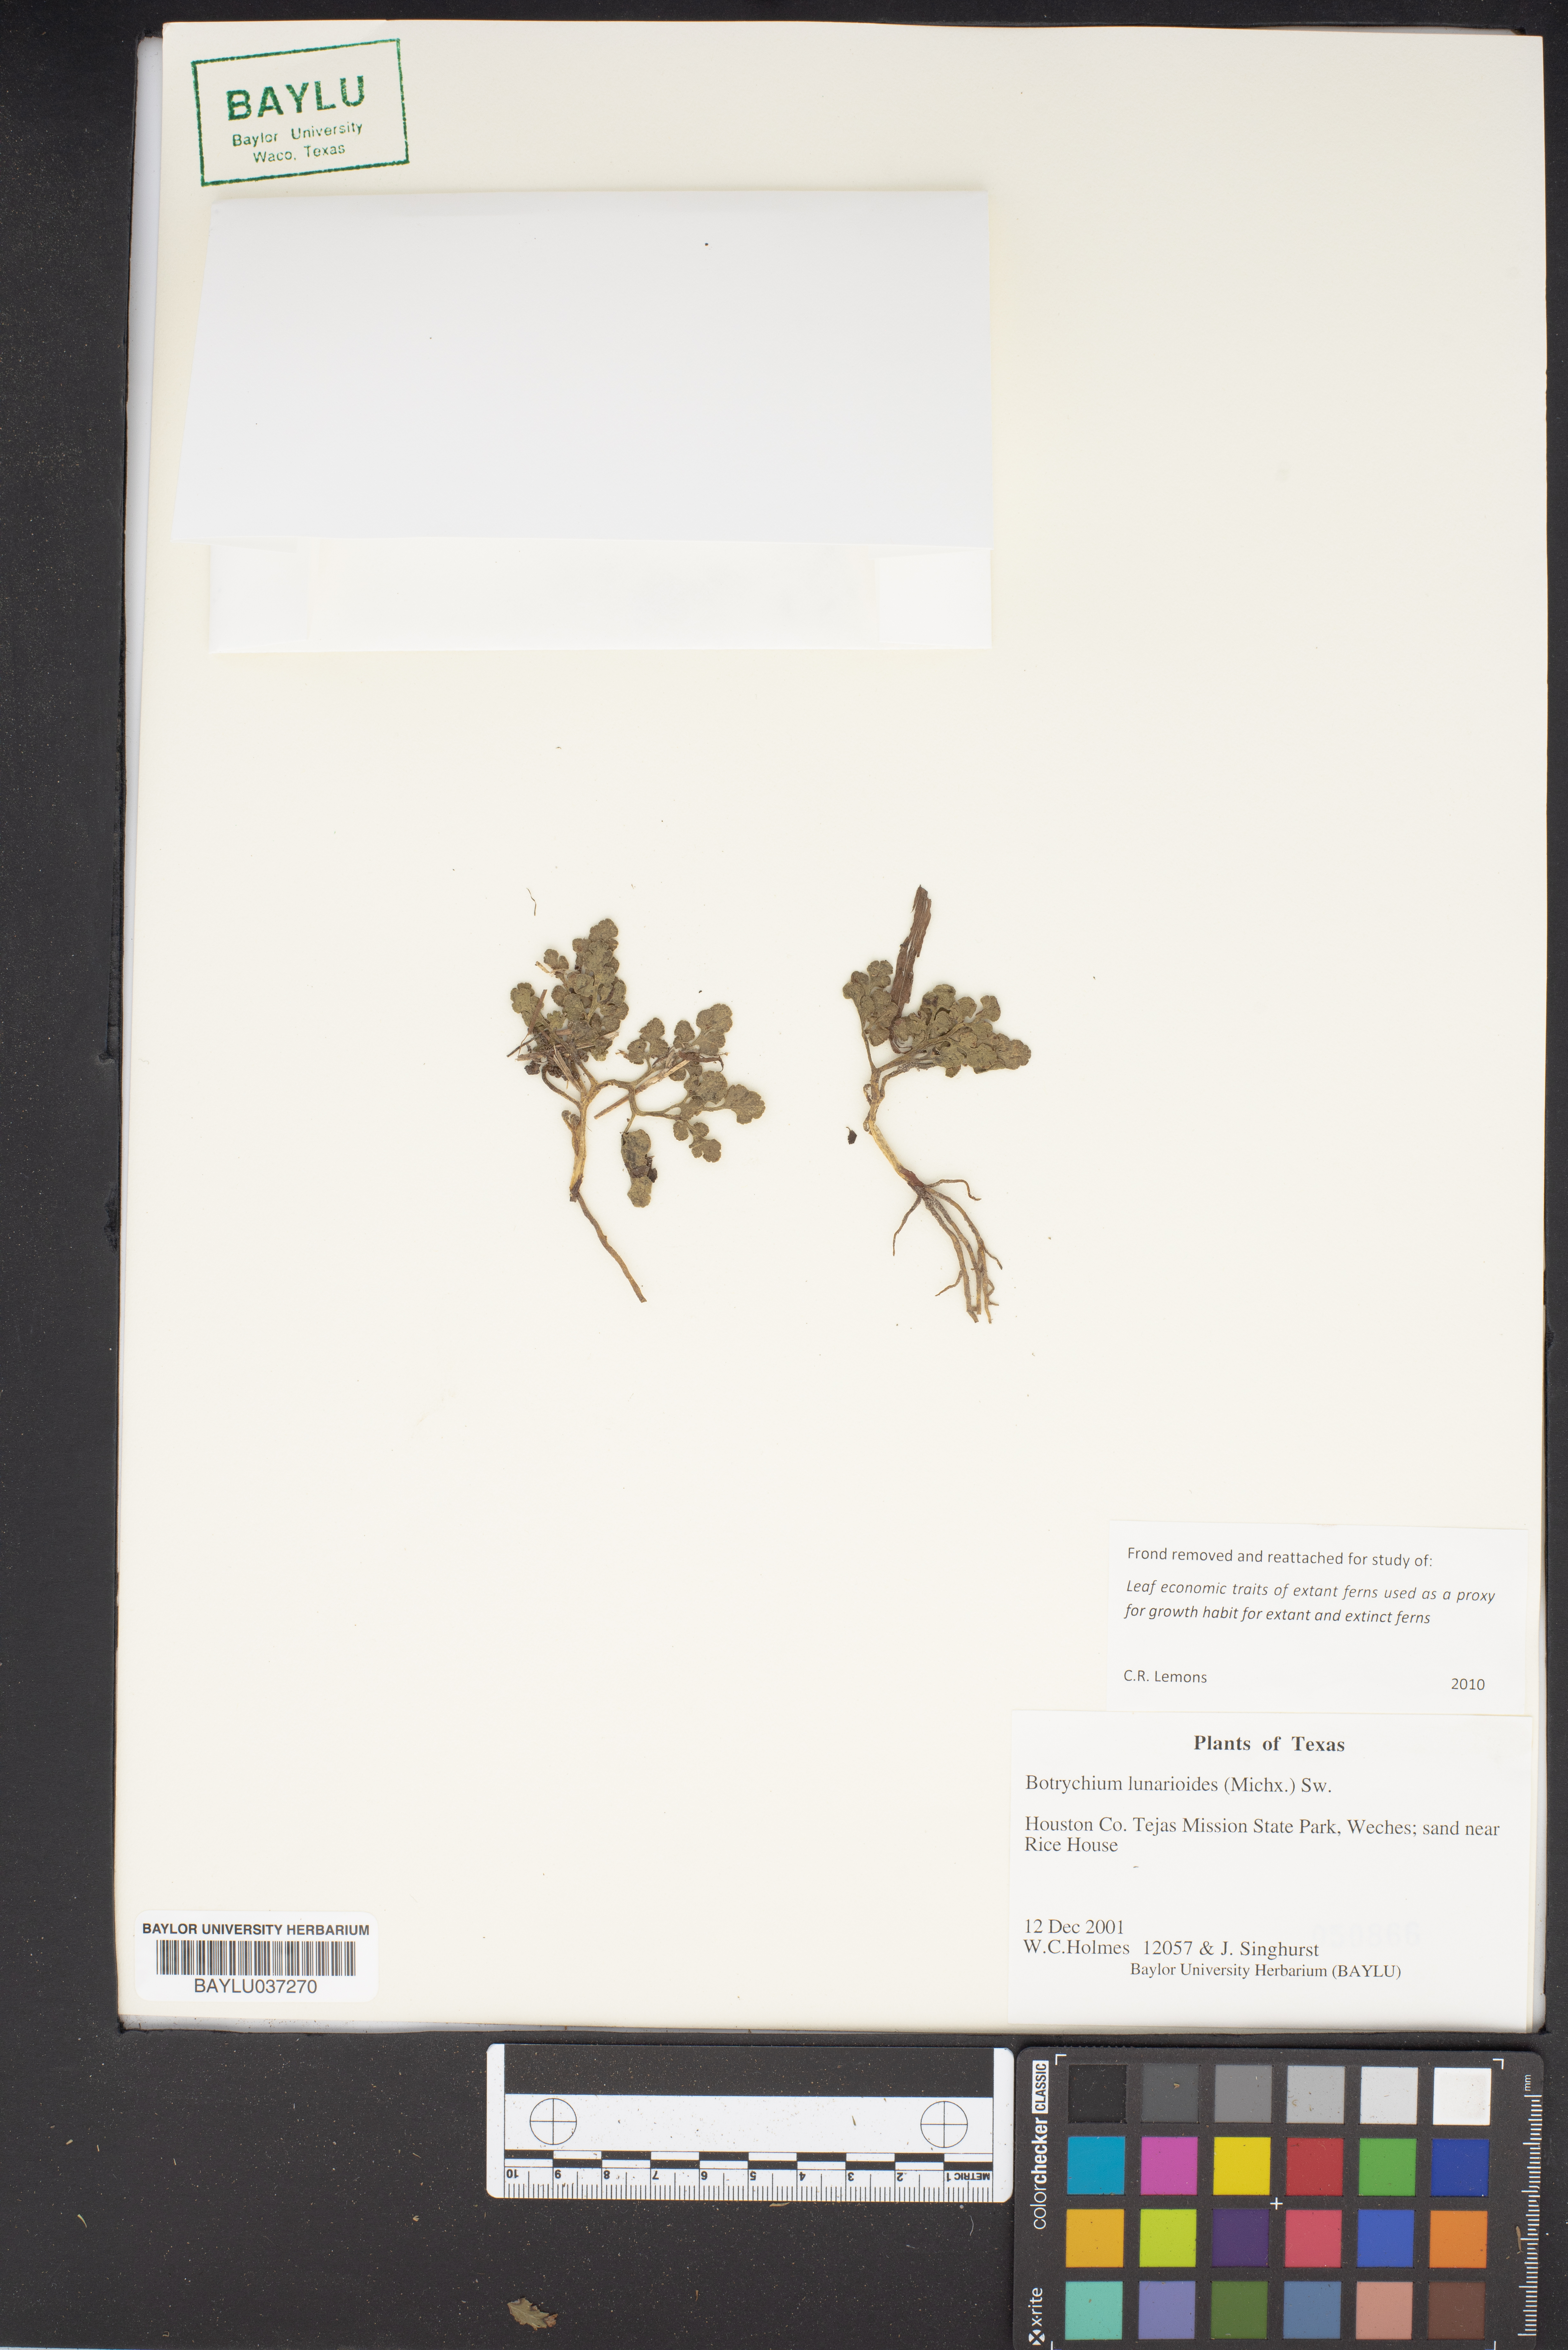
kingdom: Plantae
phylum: Tracheophyta
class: Polypodiopsida
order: Ophioglossales
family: Ophioglossaceae
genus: Sceptridium
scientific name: Sceptridium lunarioides
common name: Prostrate grapefern
